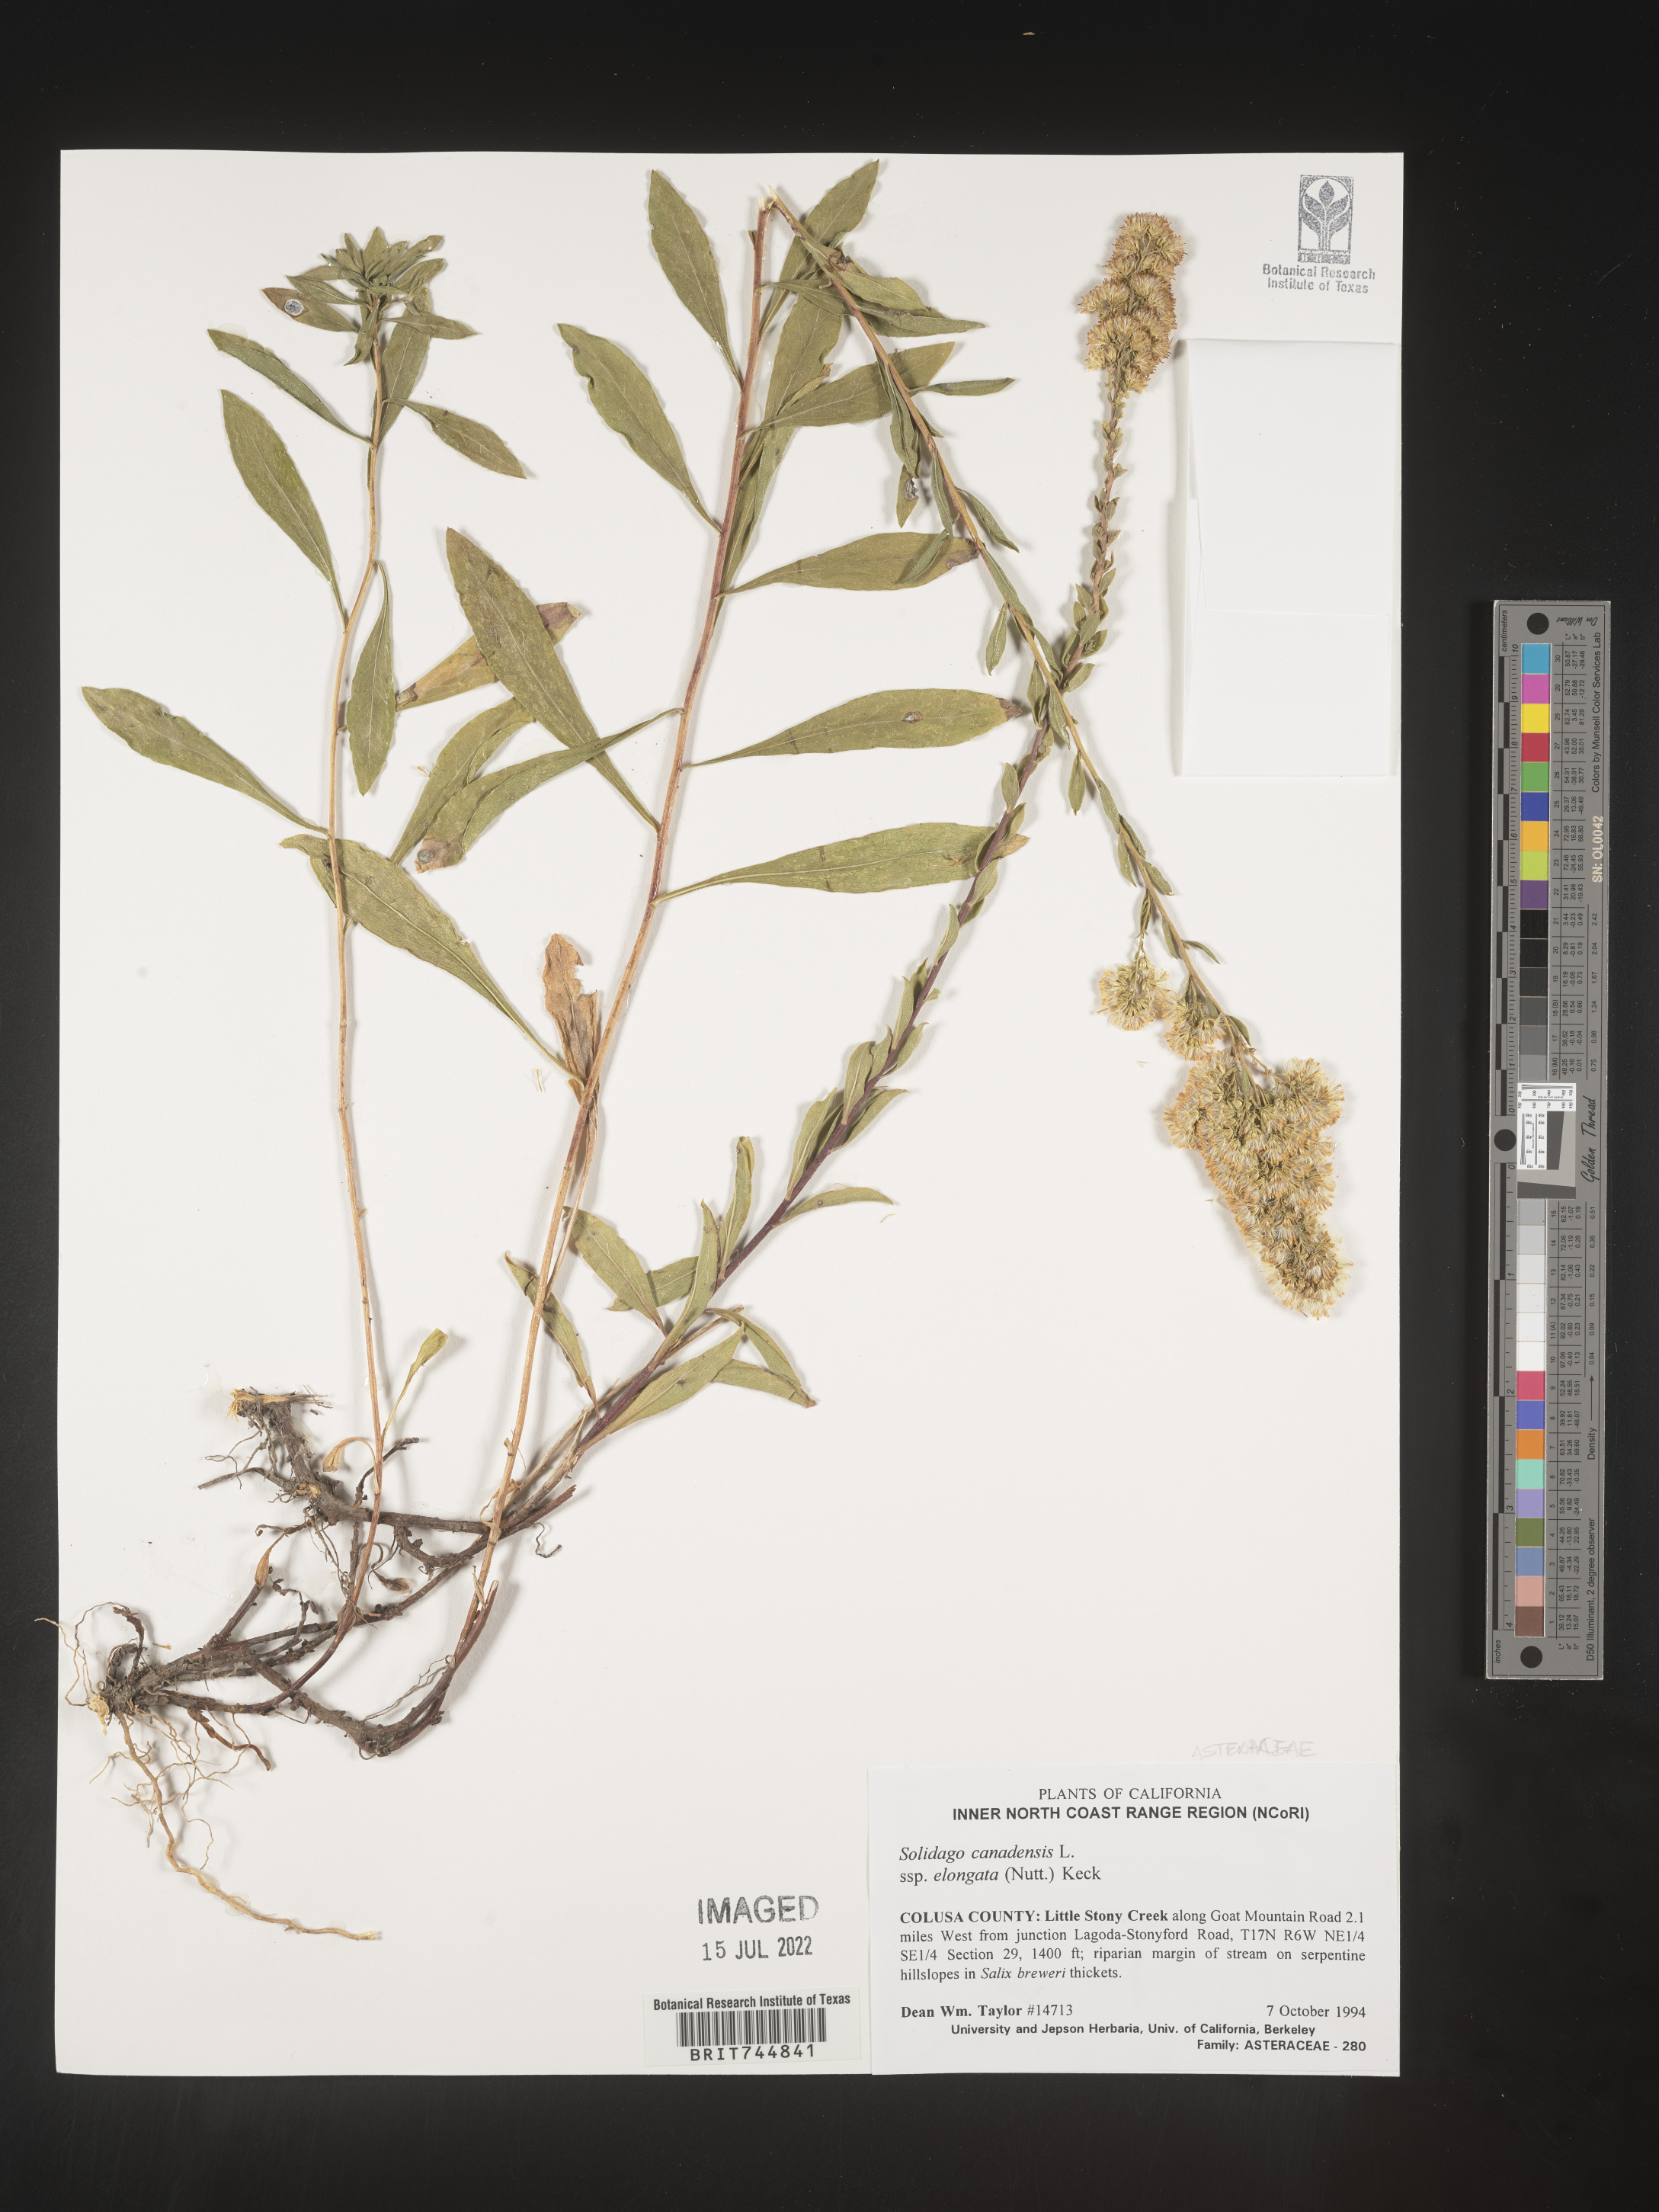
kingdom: Plantae
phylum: Tracheophyta
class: Magnoliopsida
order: Asterales
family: Asteraceae
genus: Solidago
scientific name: Solidago canadensis
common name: Canada goldenrod
